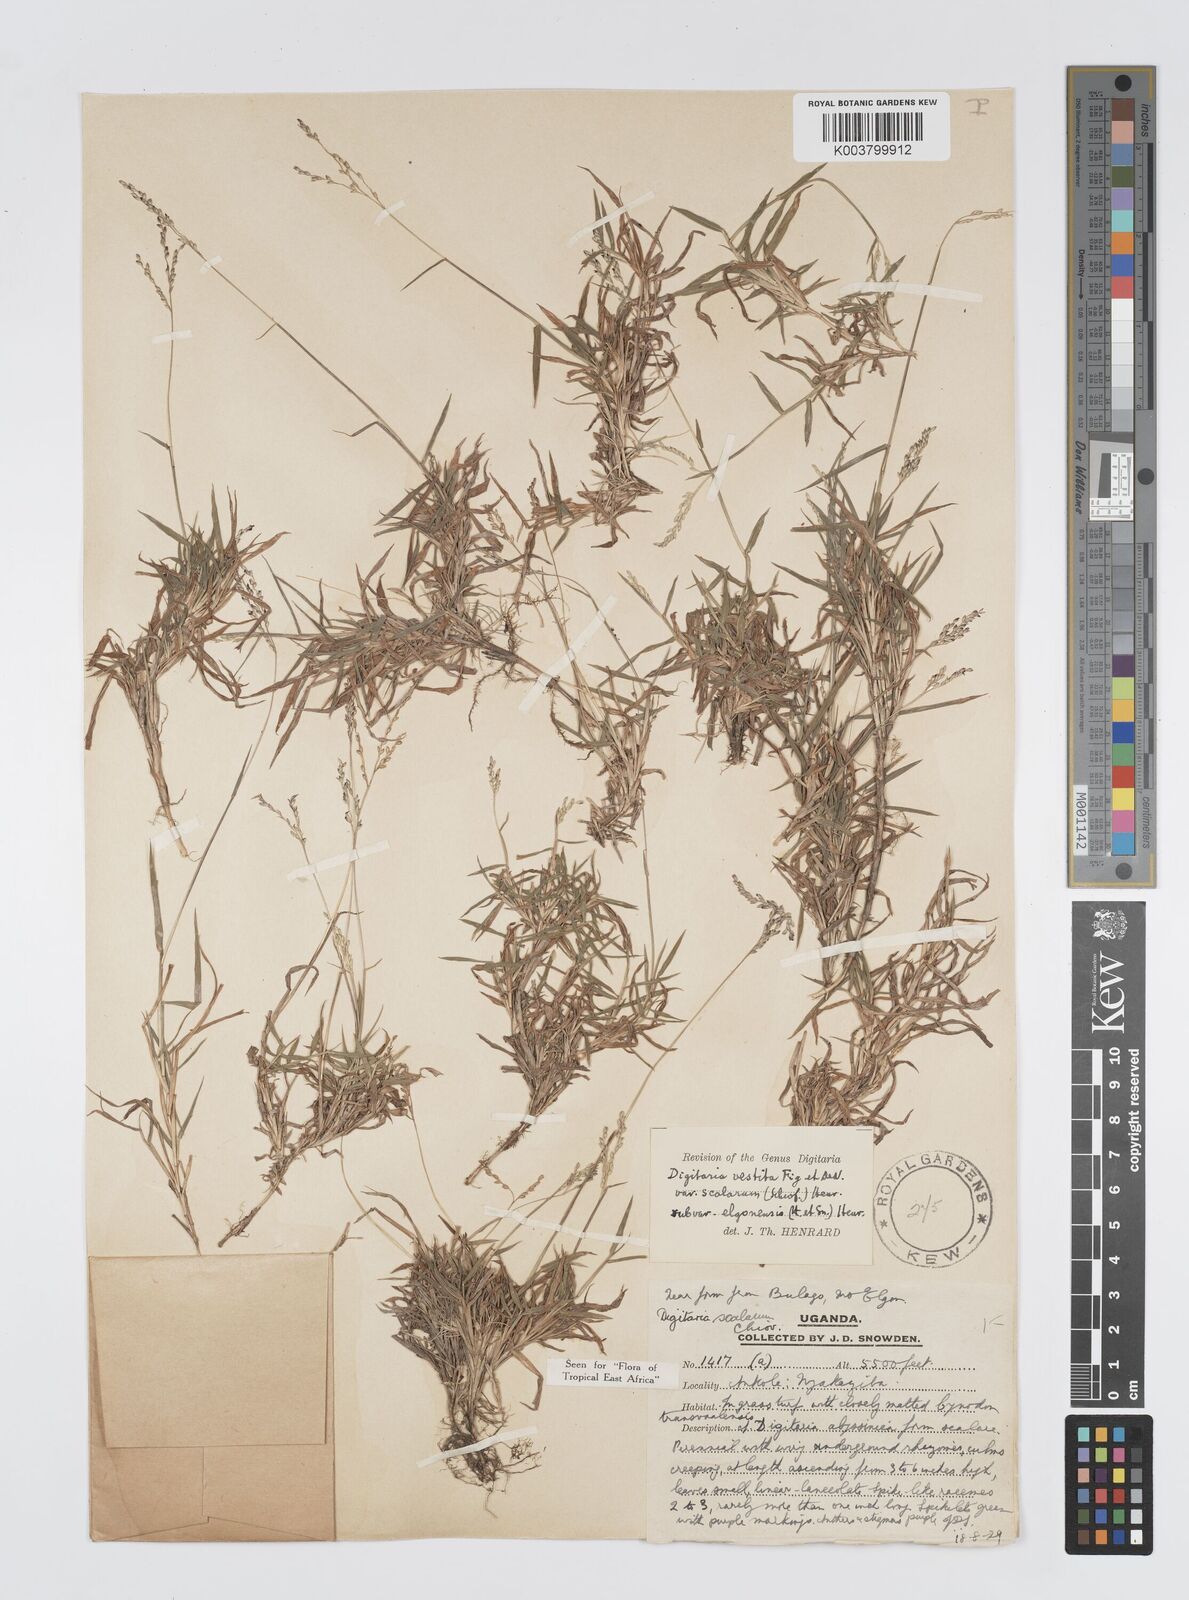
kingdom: Plantae
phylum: Tracheophyta
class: Liliopsida
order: Poales
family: Poaceae
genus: Digitaria
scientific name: Digitaria abyssinica
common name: African couchgrass
